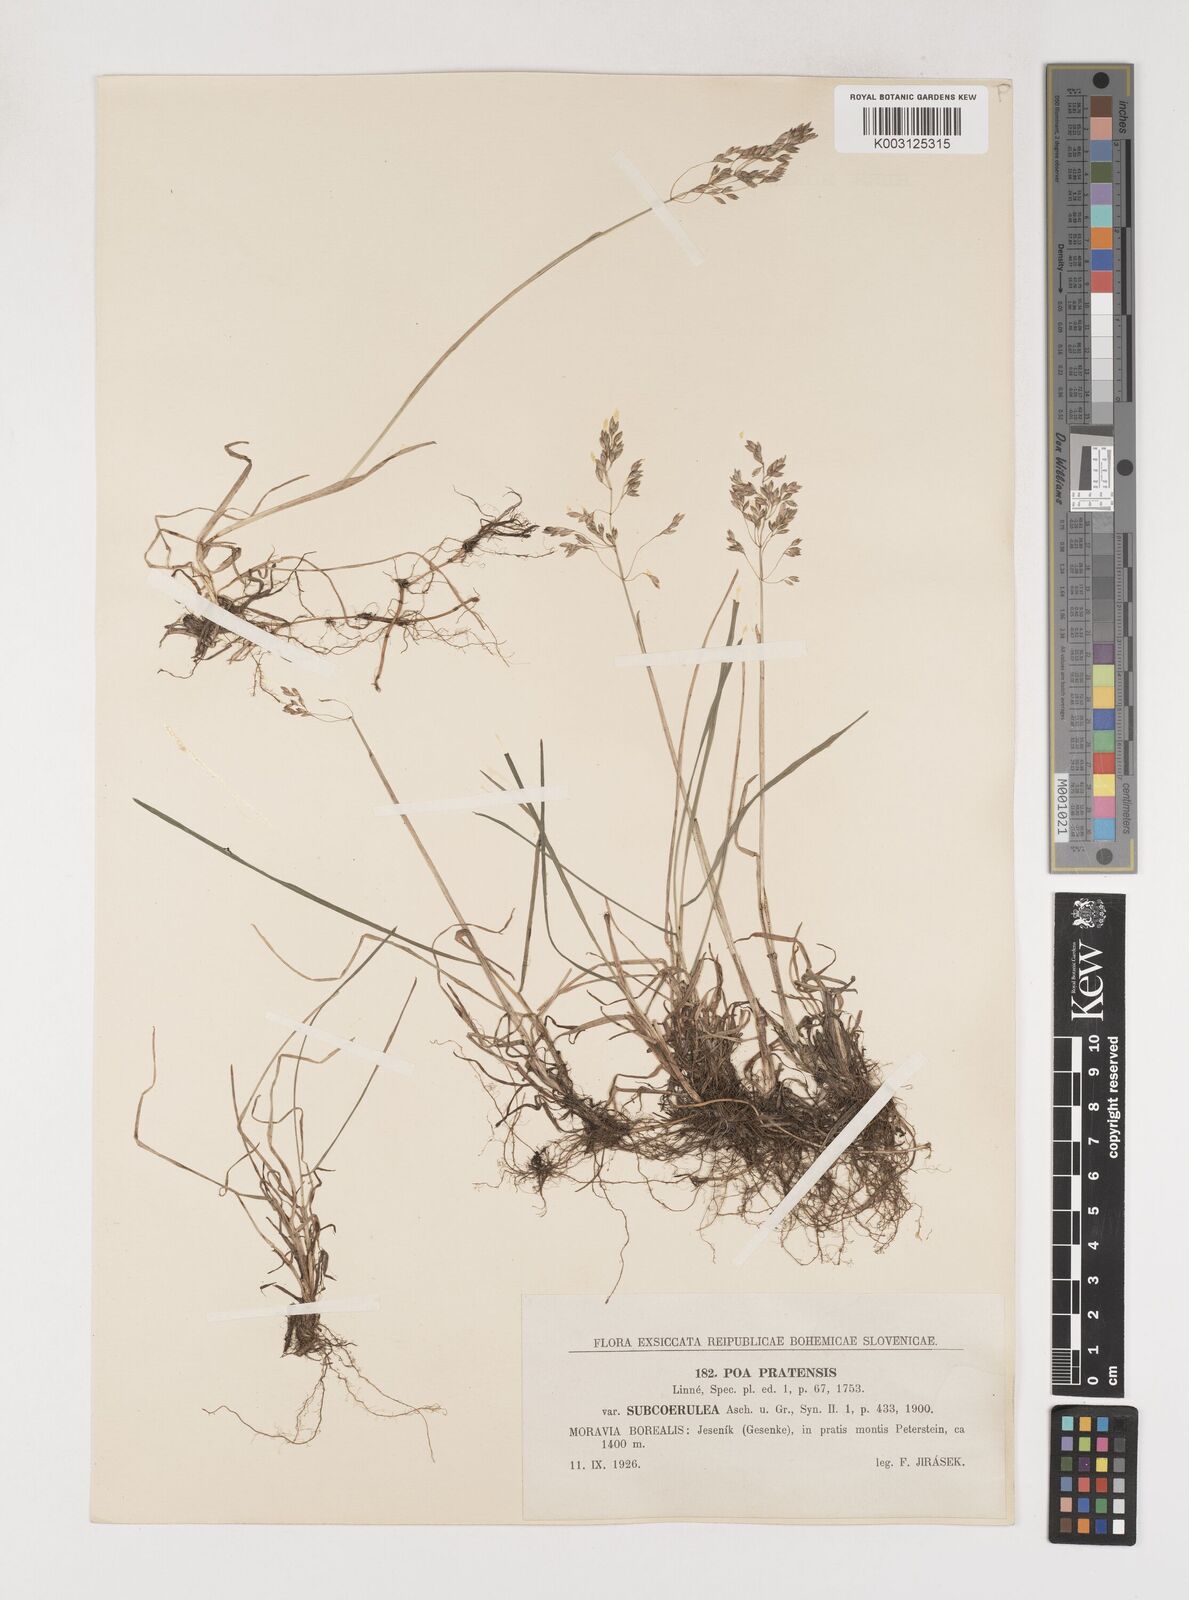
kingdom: Plantae
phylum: Tracheophyta
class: Liliopsida
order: Poales
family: Poaceae
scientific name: Poaceae
